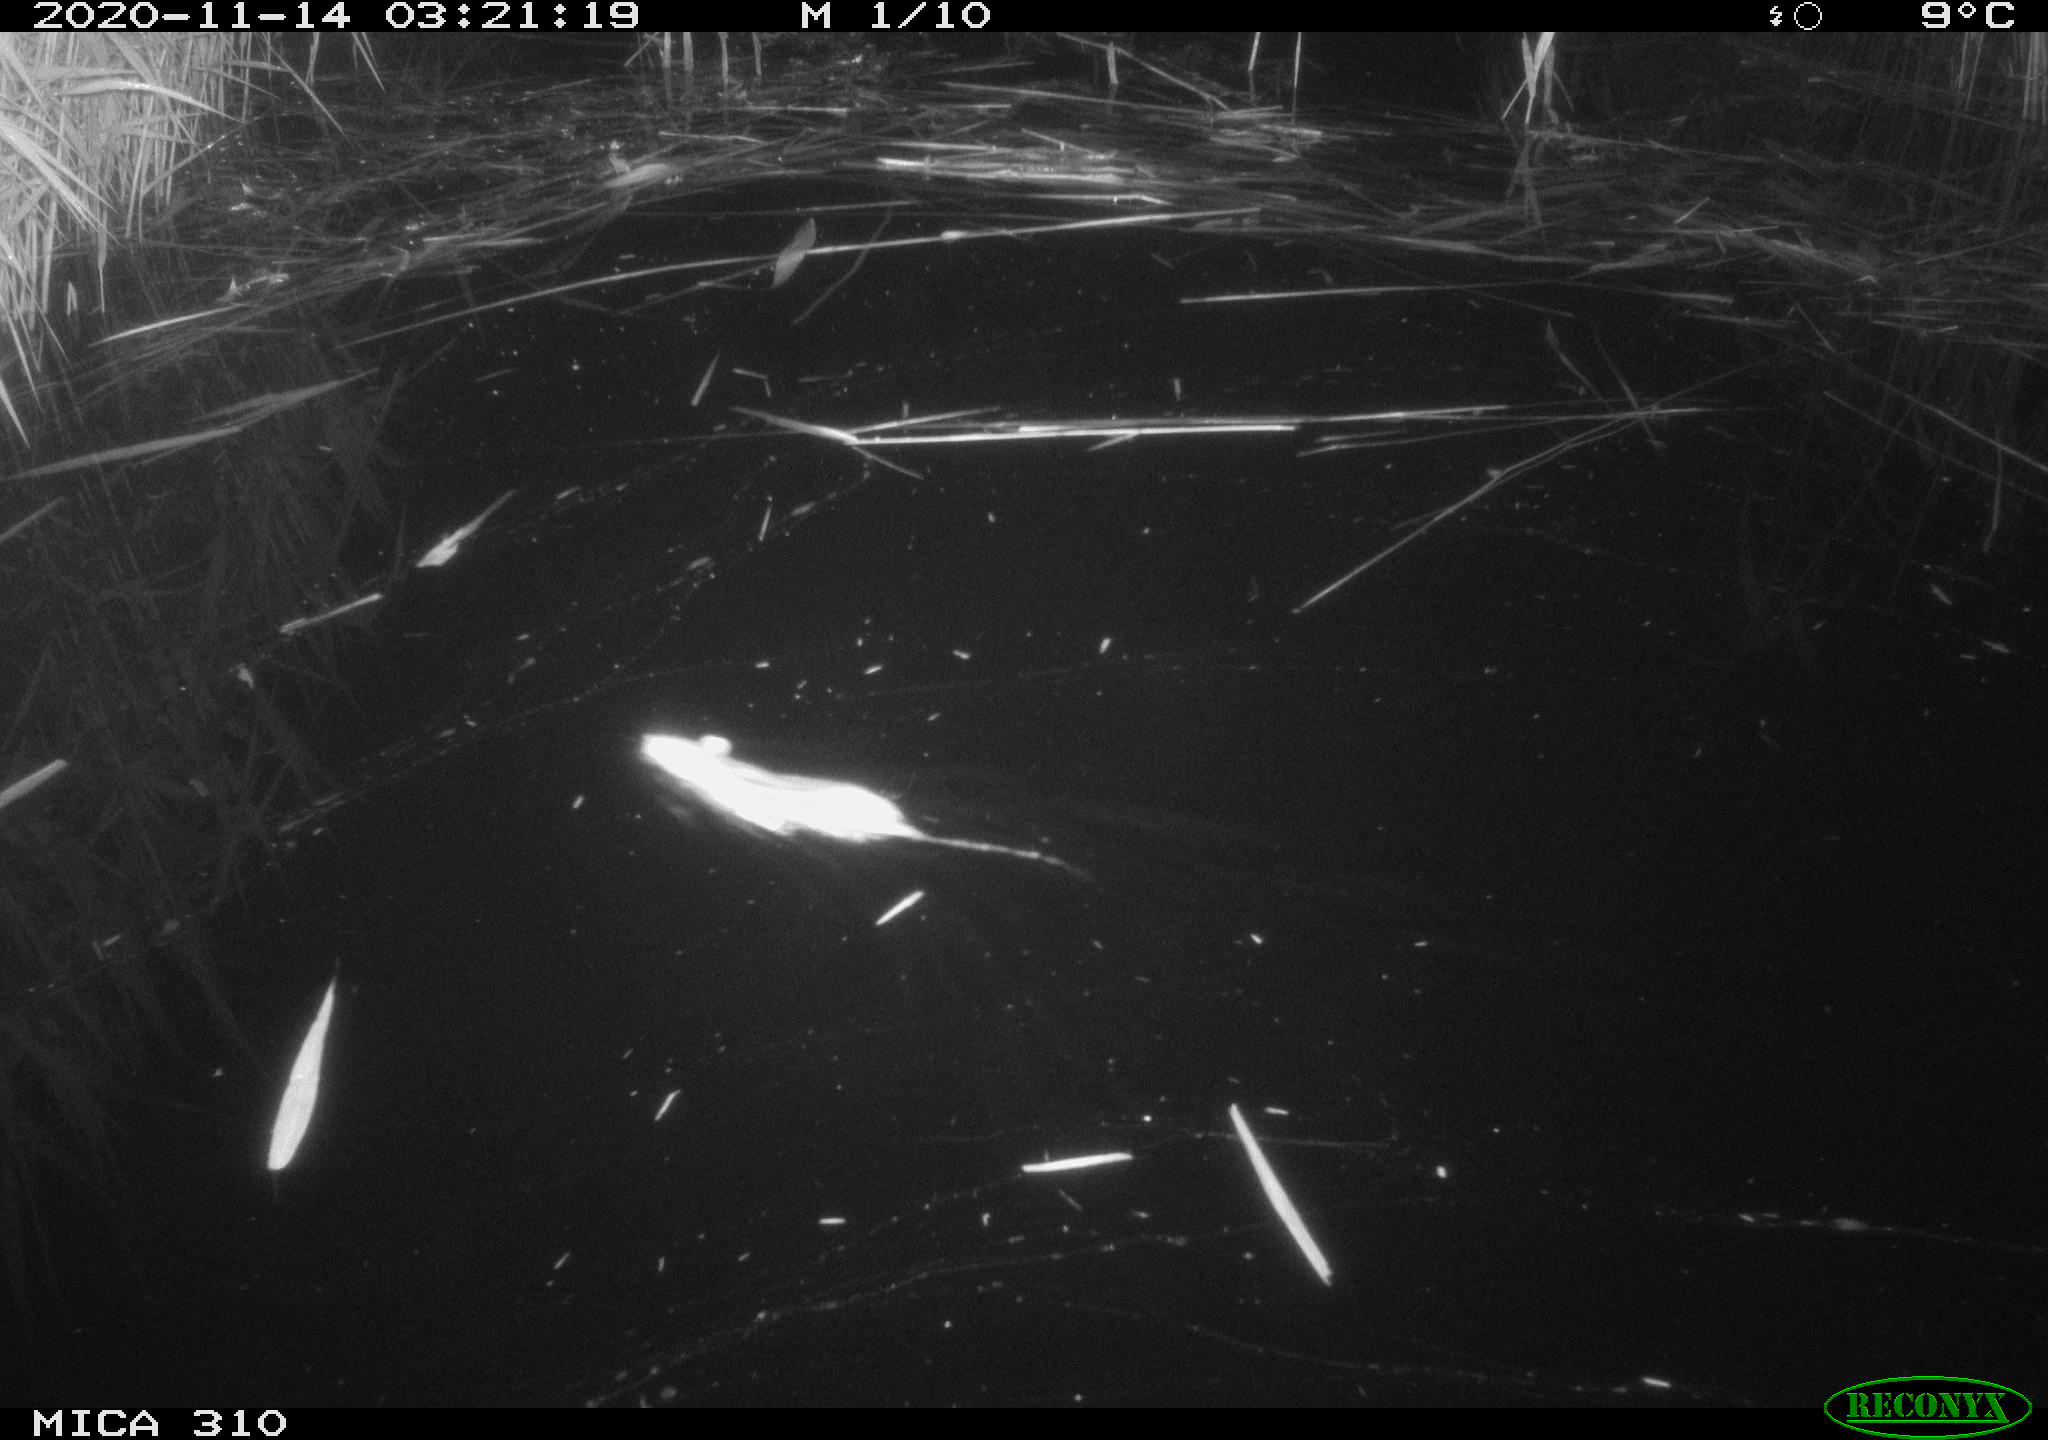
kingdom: Animalia
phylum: Chordata
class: Mammalia
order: Rodentia
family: Muridae
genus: Rattus
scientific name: Rattus norvegicus
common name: Brown rat
